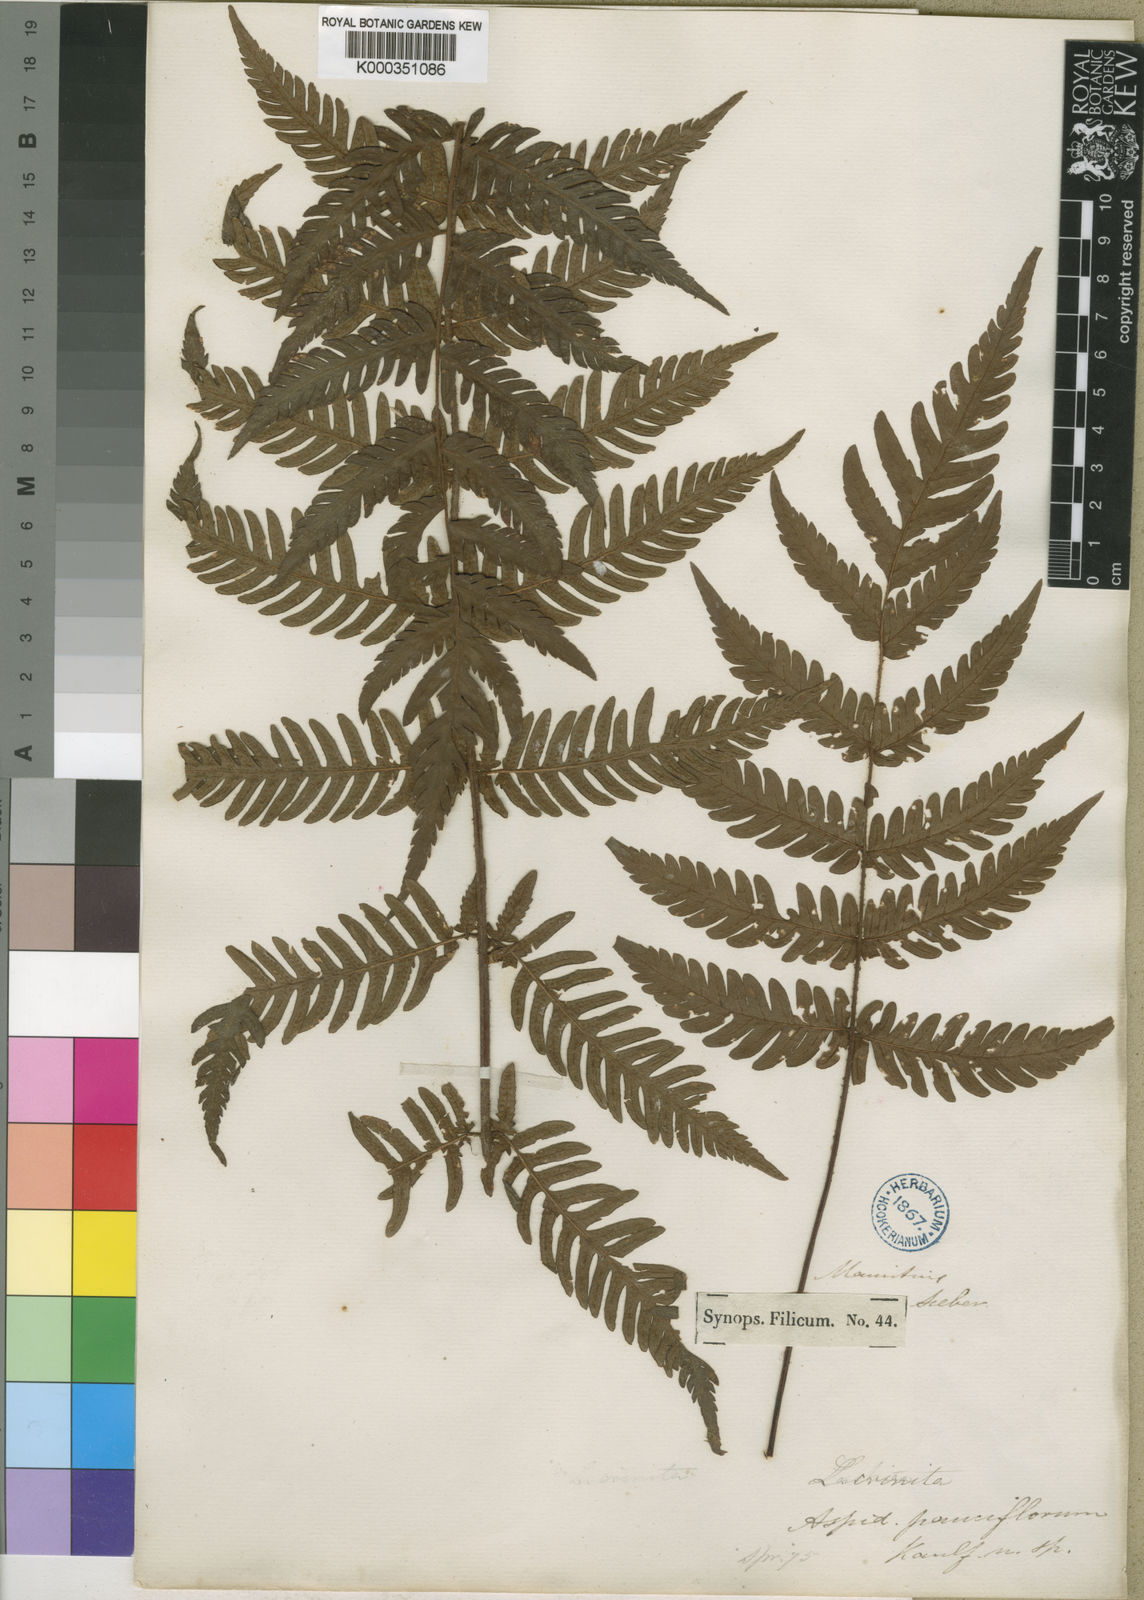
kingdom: Plantae
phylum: Tracheophyta
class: Polypodiopsida
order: Polypodiales
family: Dryopteridaceae
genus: Ctenitis
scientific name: Ctenitis pauciflora
